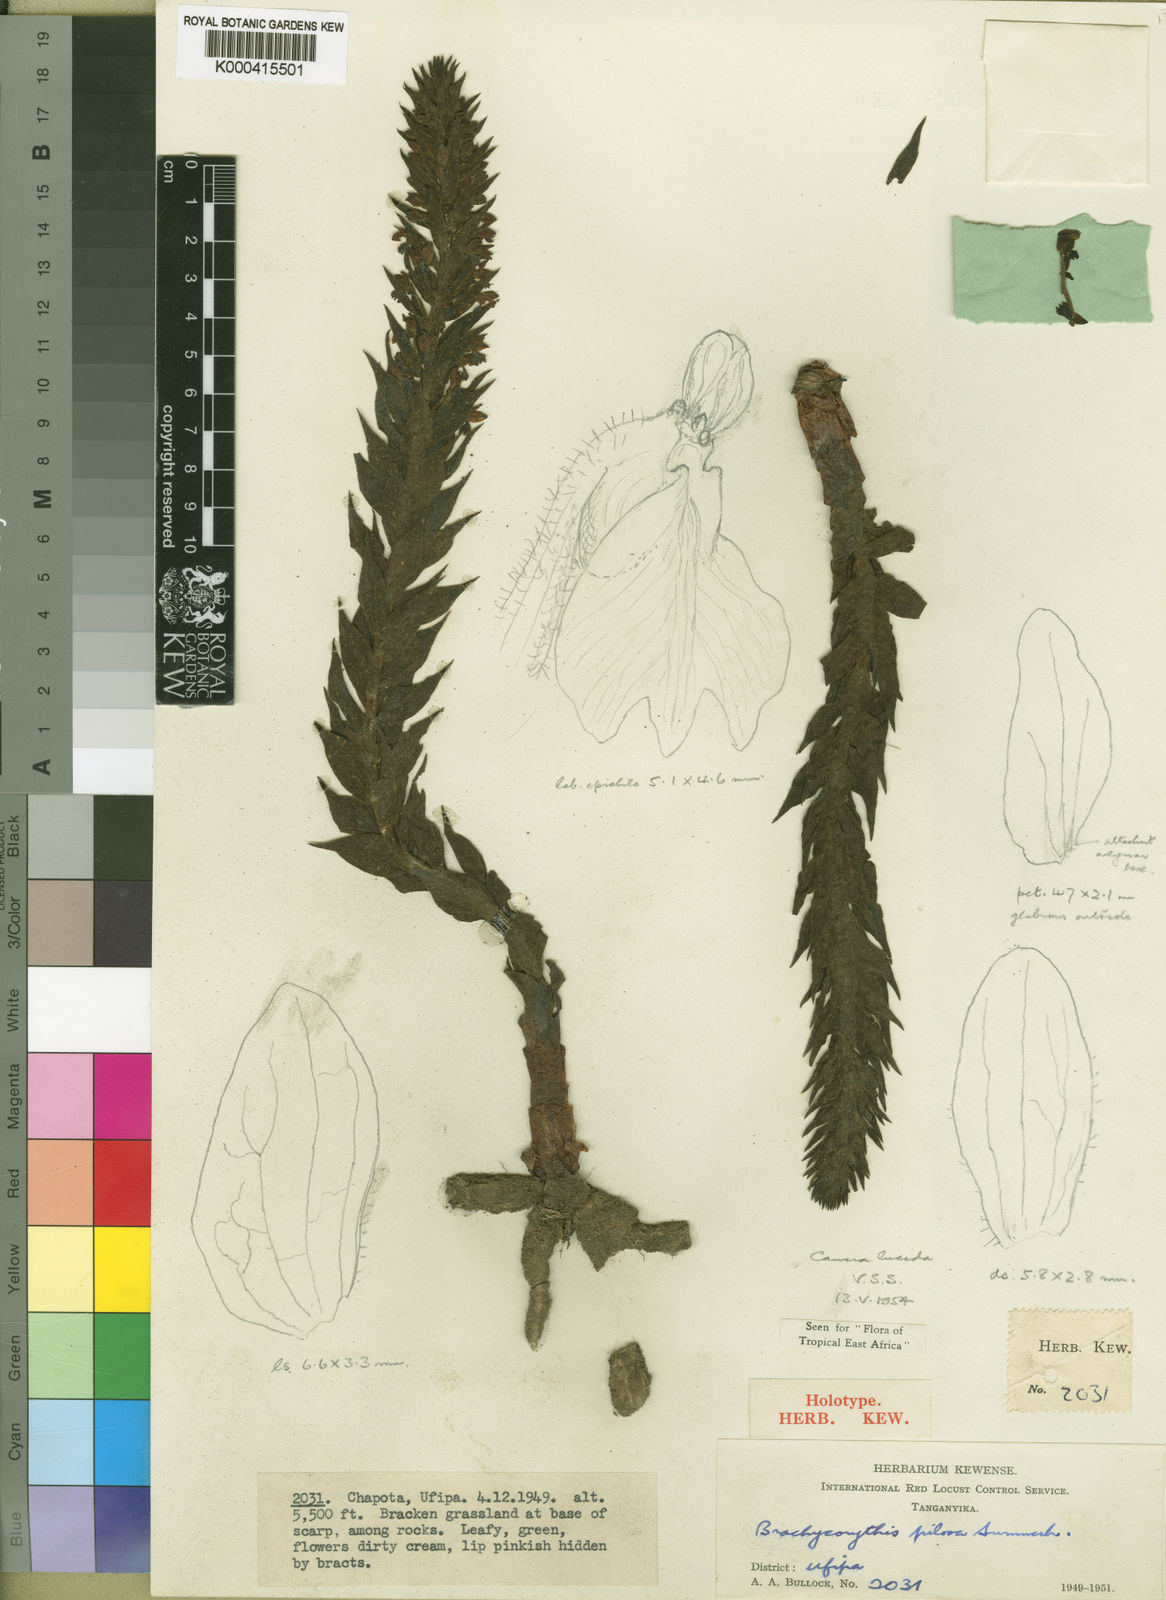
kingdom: Plantae
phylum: Tracheophyta
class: Liliopsida
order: Asparagales
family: Orchidaceae
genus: Brachycorythis
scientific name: Brachycorythis pilosa
